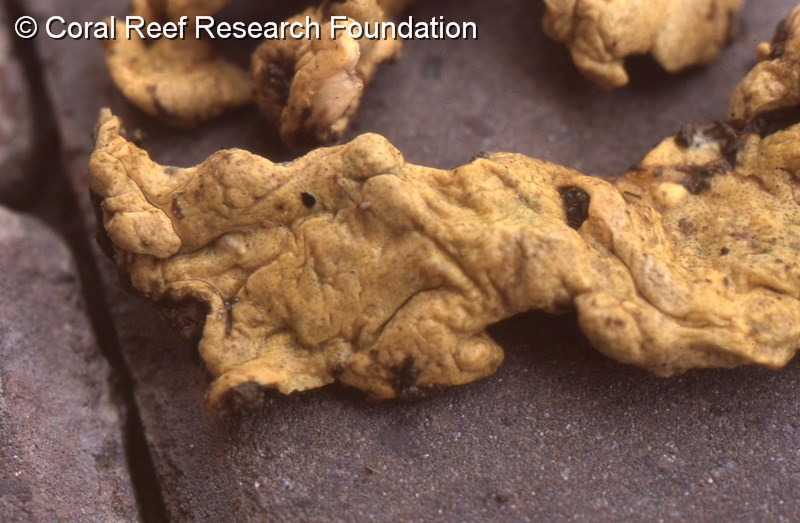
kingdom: Animalia
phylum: Chordata
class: Ascidiacea
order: Aplousobranchia
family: Didemnidae
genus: Leptoclinides
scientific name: Leptoclinides
